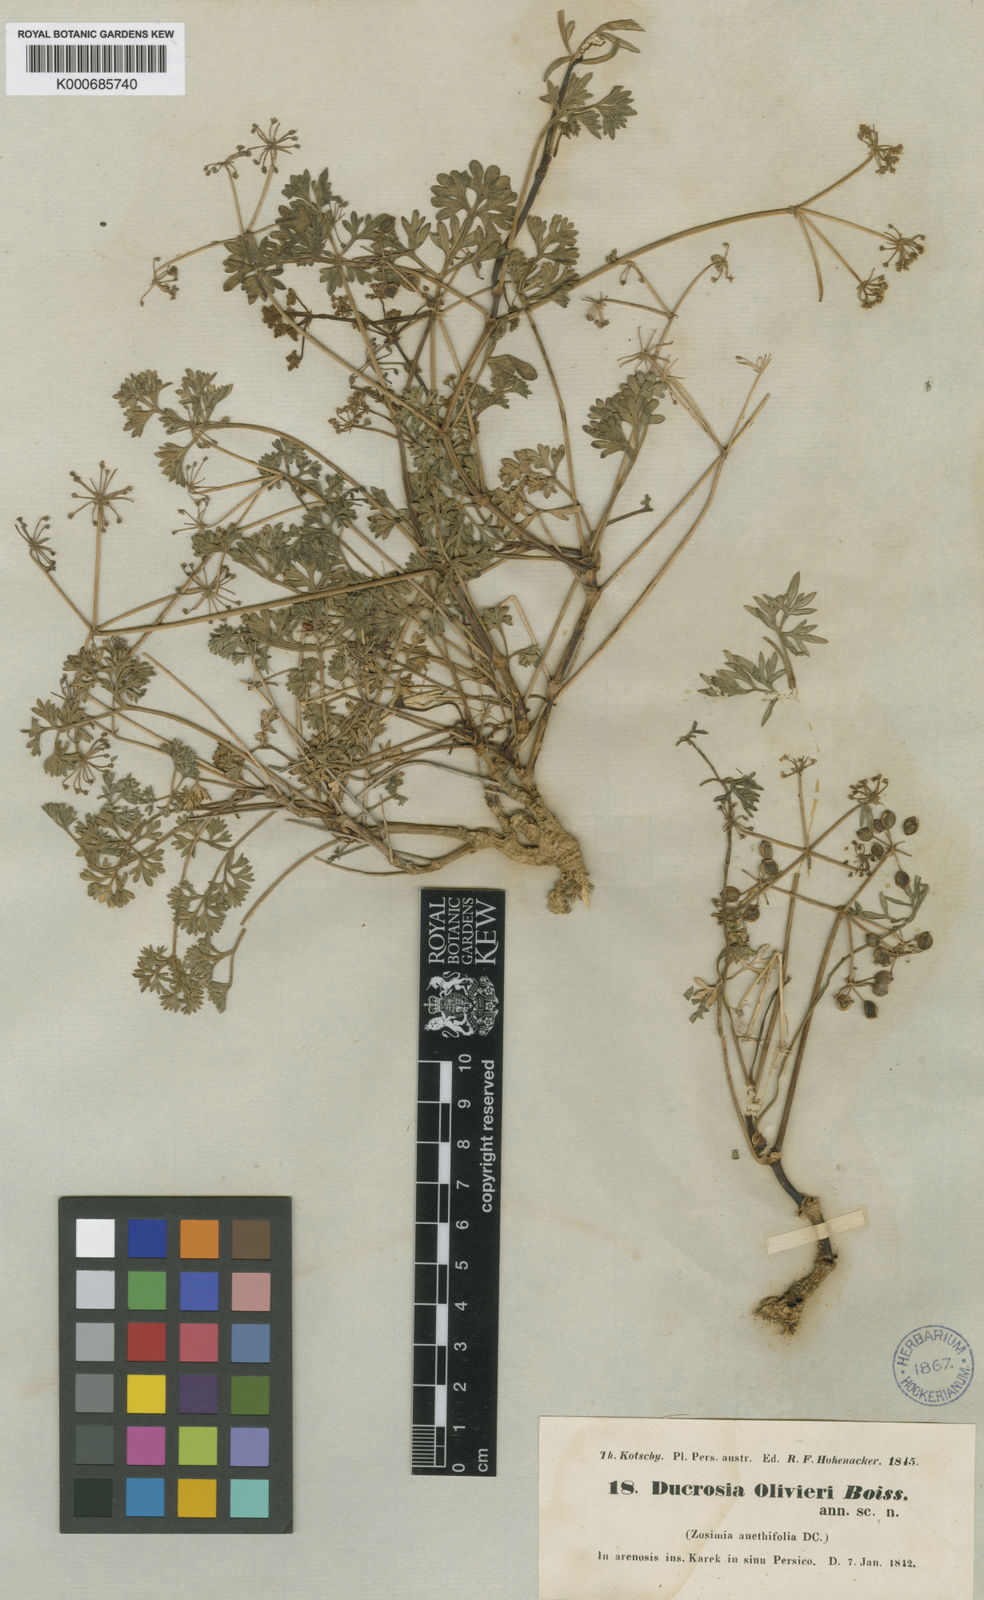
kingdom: Plantae
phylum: Tracheophyta
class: Magnoliopsida
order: Apiales
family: Apiaceae
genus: Ducrosia
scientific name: Ducrosia anethifolia
